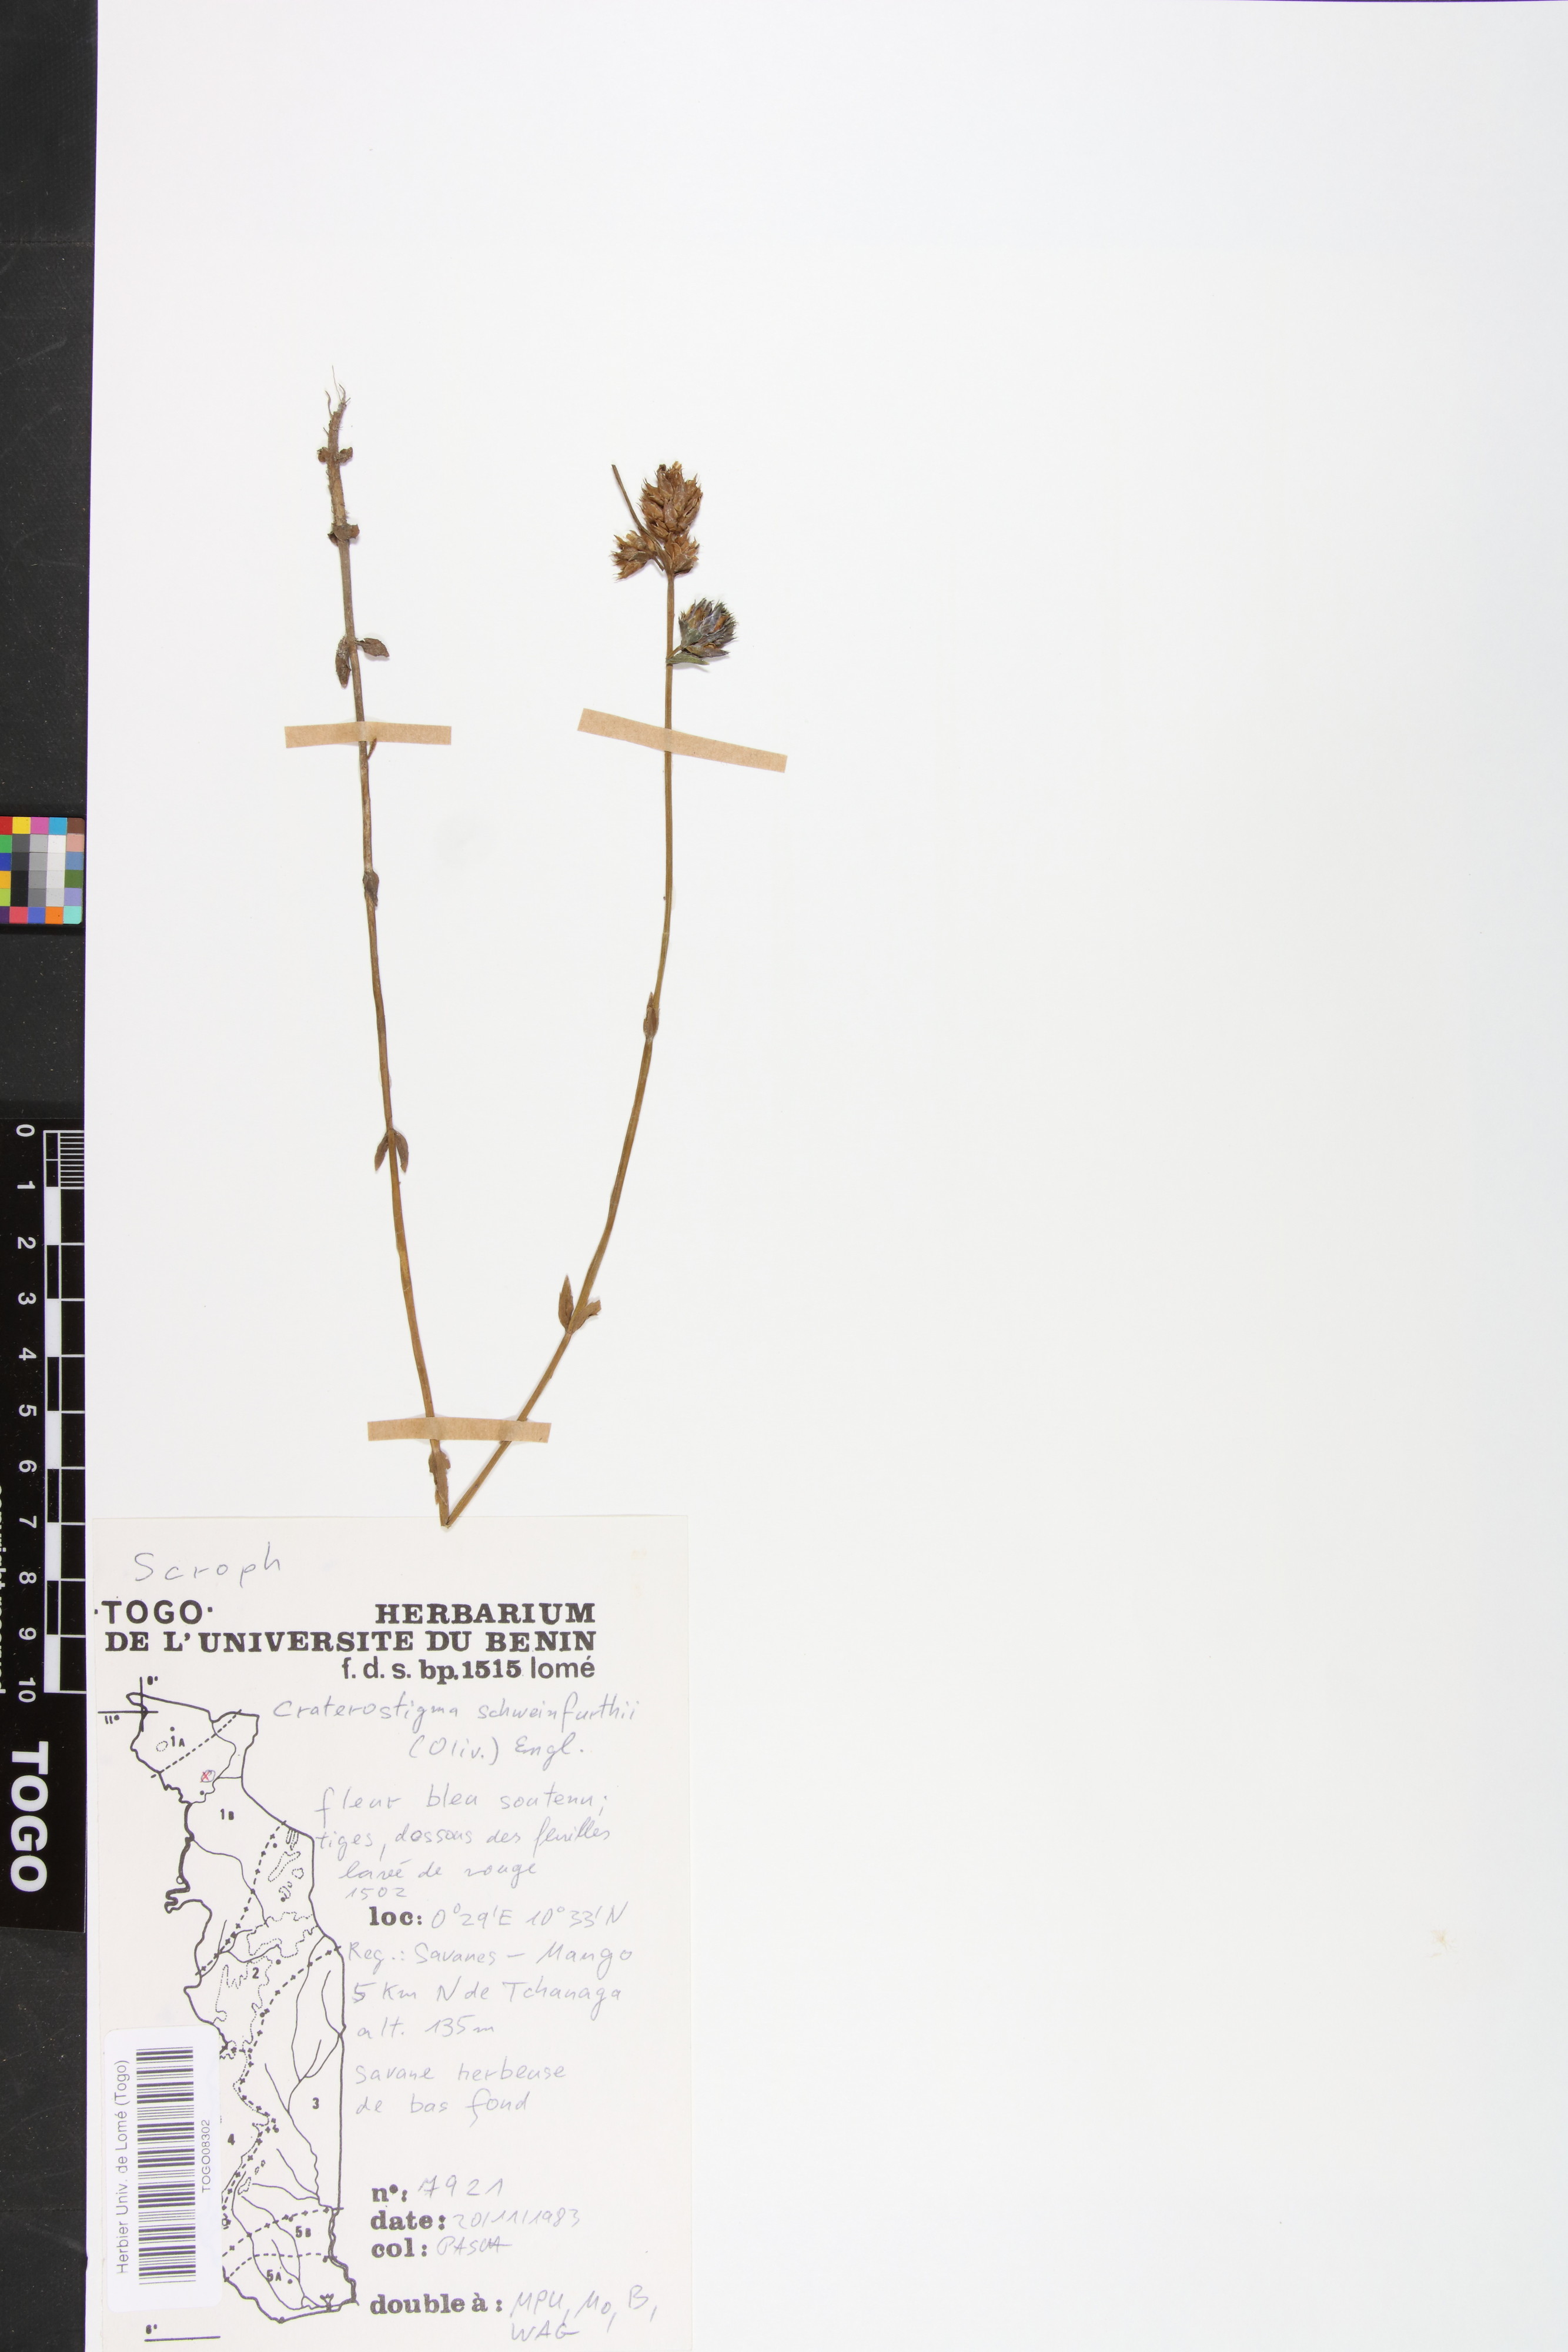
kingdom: Plantae
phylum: Tracheophyta
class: Magnoliopsida
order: Lamiales
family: Linderniaceae
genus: Crepidorhopalon
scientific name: Crepidorhopalon schweinfurthii
